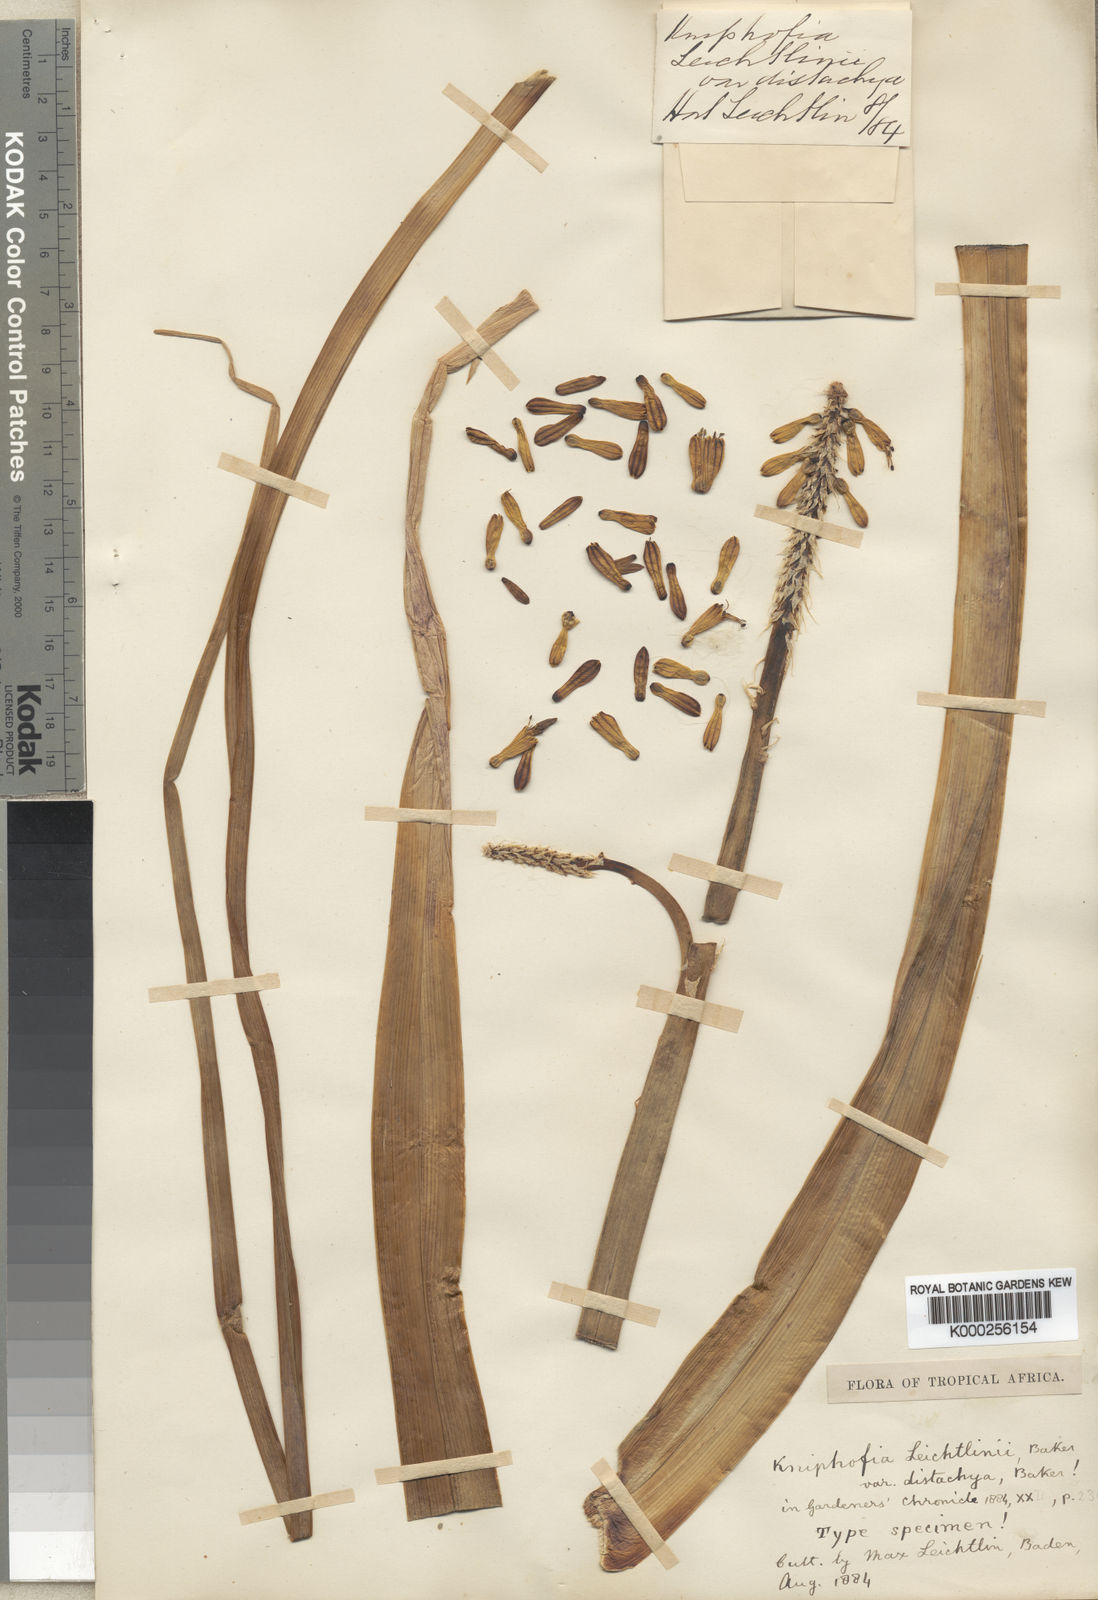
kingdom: Plantae
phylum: Tracheophyta
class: Liliopsida
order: Asparagales
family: Asphodelaceae
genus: Kniphofia
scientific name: Kniphofia pumila
